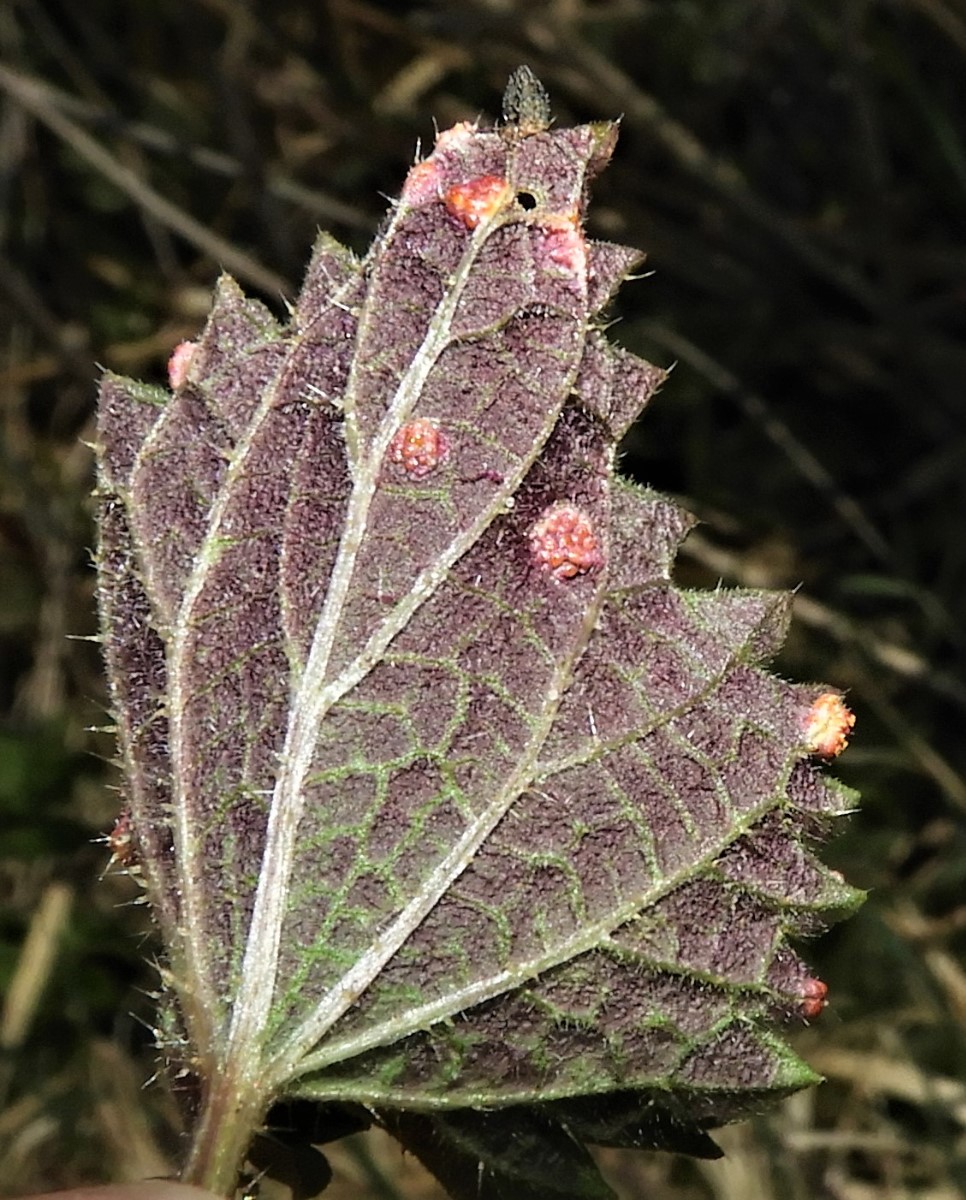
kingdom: Fungi
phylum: Basidiomycota
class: Pucciniomycetes
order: Pucciniales
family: Pucciniaceae
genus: Puccinia
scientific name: Puccinia urticata
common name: nældegalle-tvecellerust
